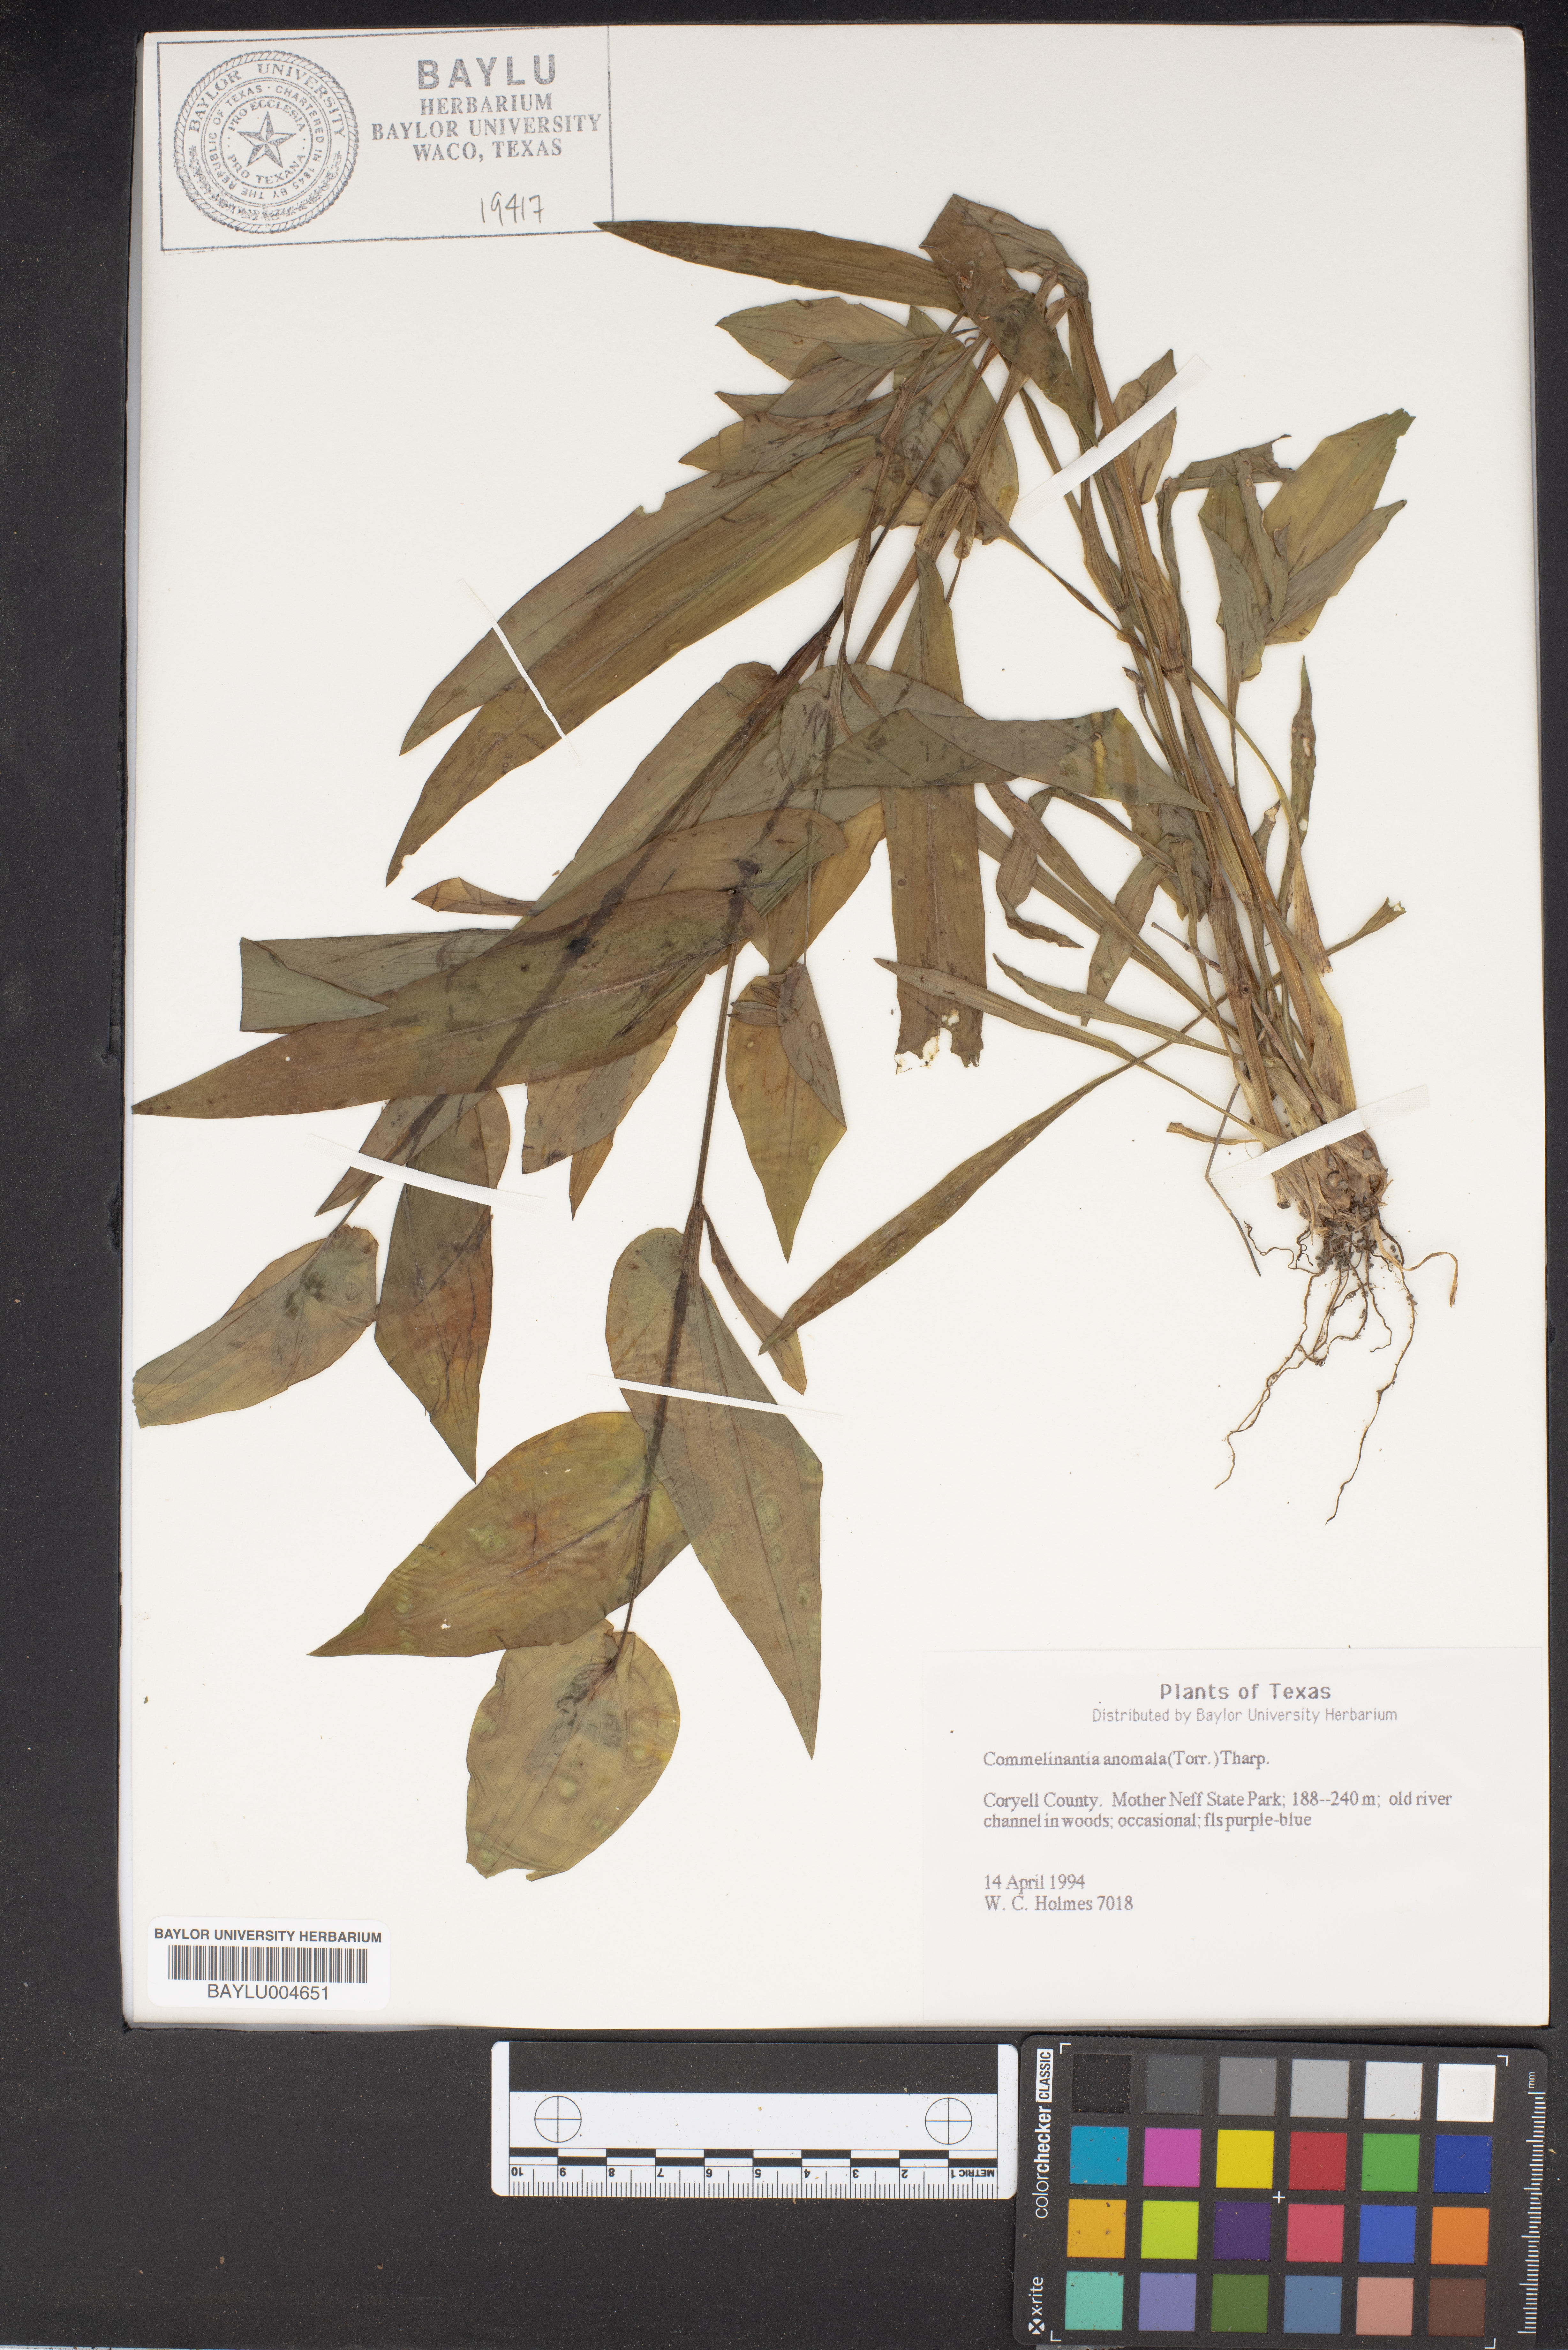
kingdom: Plantae
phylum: Tracheophyta
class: Liliopsida
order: Commelinales
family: Commelinaceae
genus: Tinantia
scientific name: Tinantia anomala
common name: False dayflower
